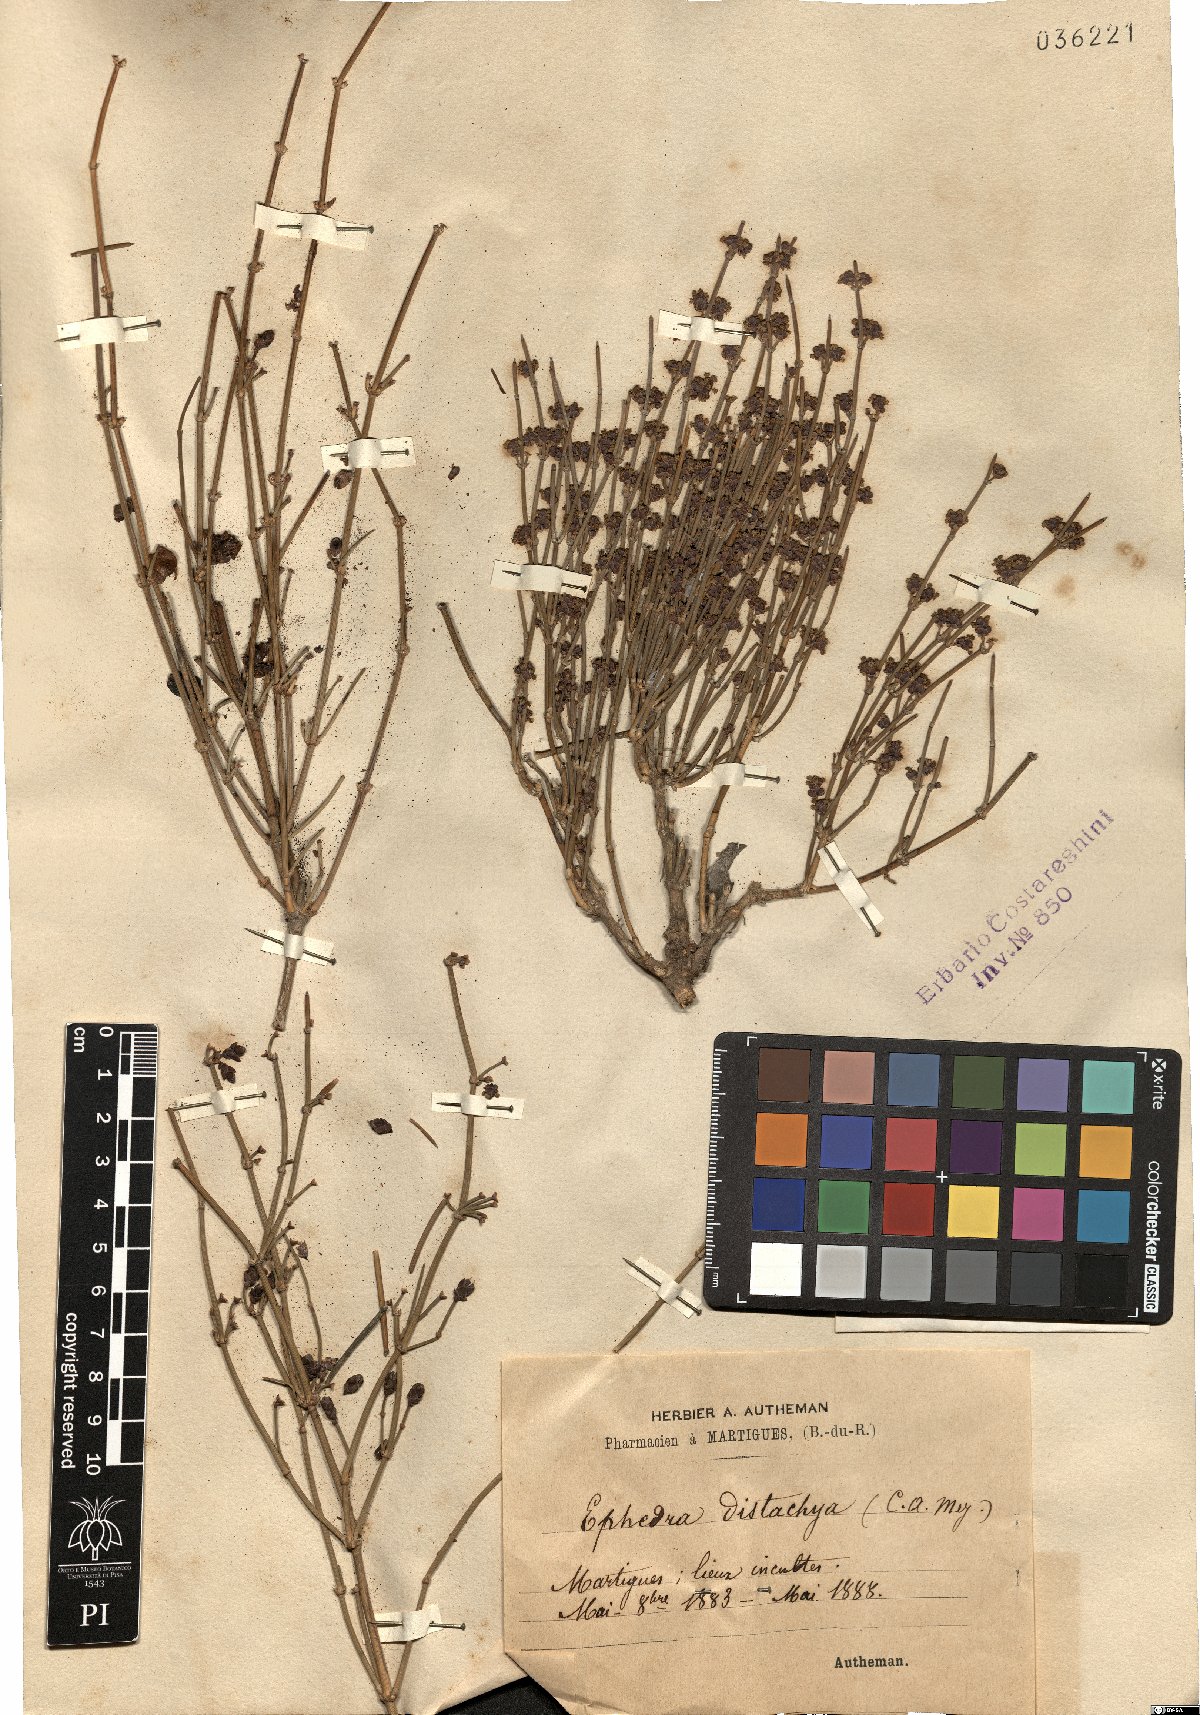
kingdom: Plantae
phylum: Tracheophyta
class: Gnetopsida
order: Ephedrales
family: Ephedraceae
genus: Ephedra
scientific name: Ephedra distachya
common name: Sea grape
